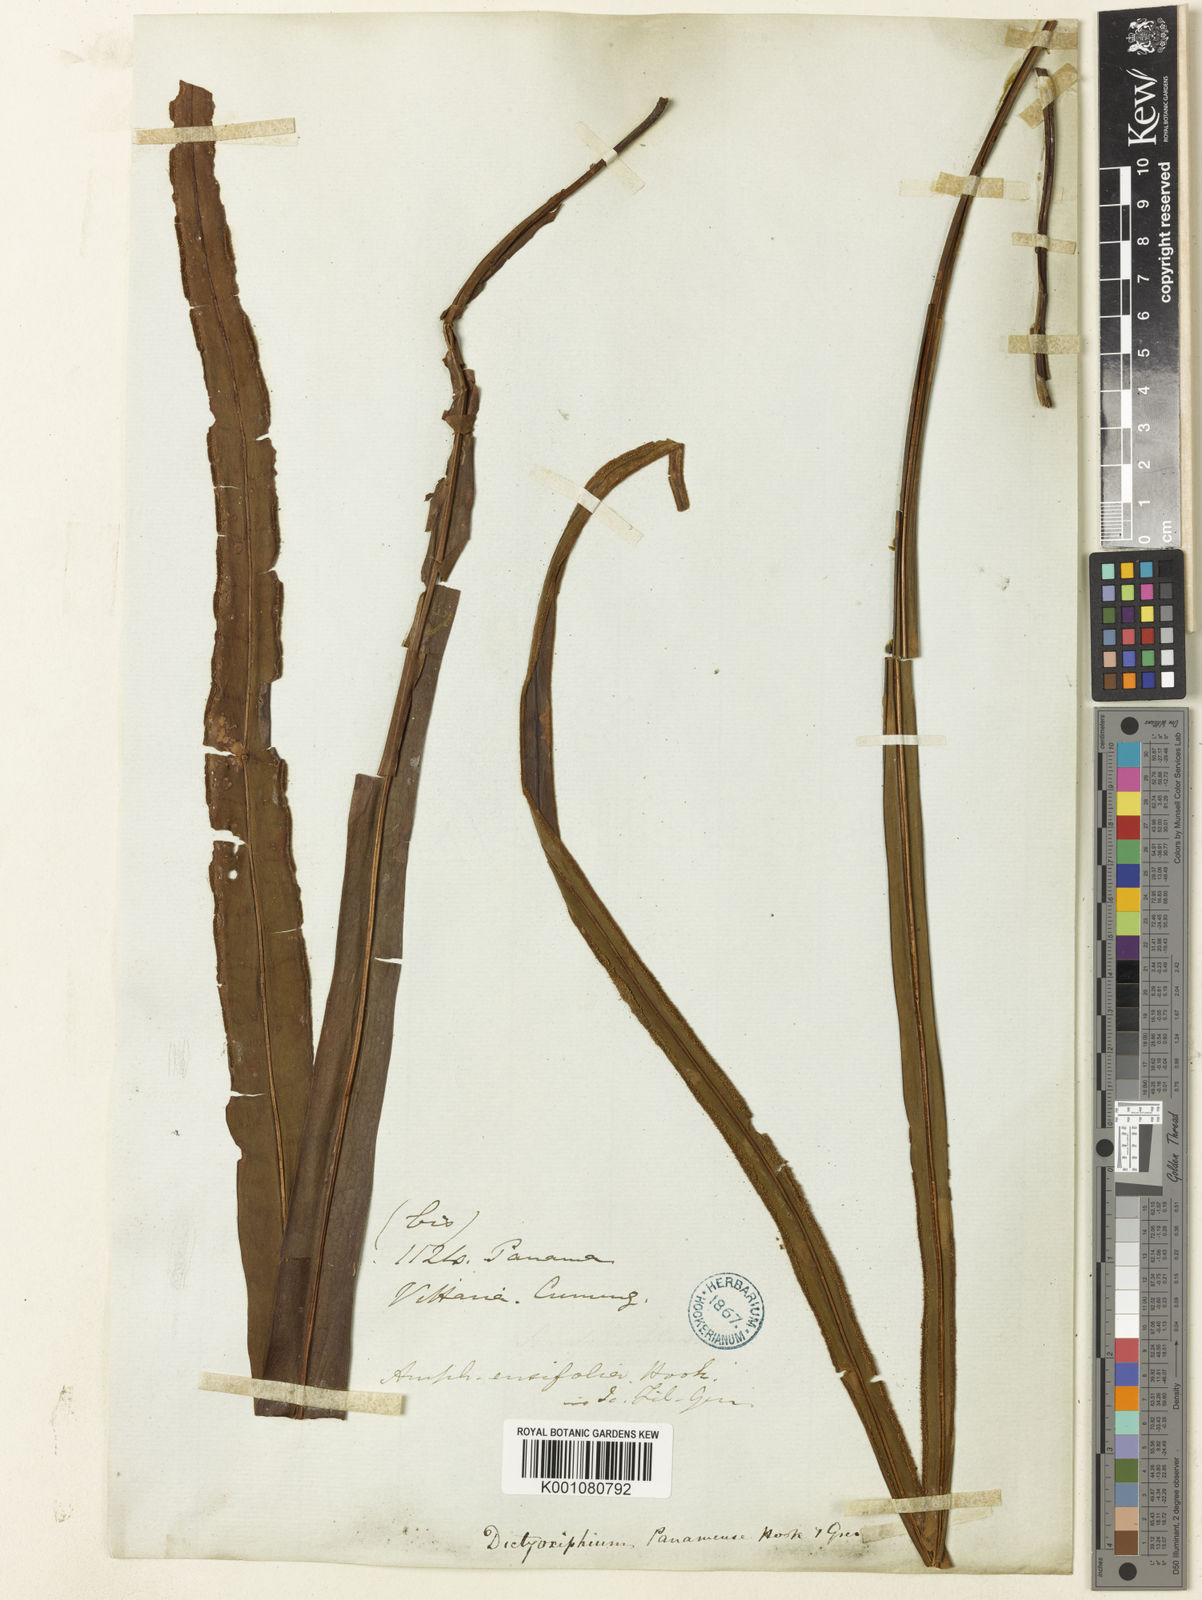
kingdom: Plantae
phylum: Tracheophyta
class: Polypodiopsida
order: Polypodiales
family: Tectariaceae
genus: Tectaria
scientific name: Tectaria panamensis
